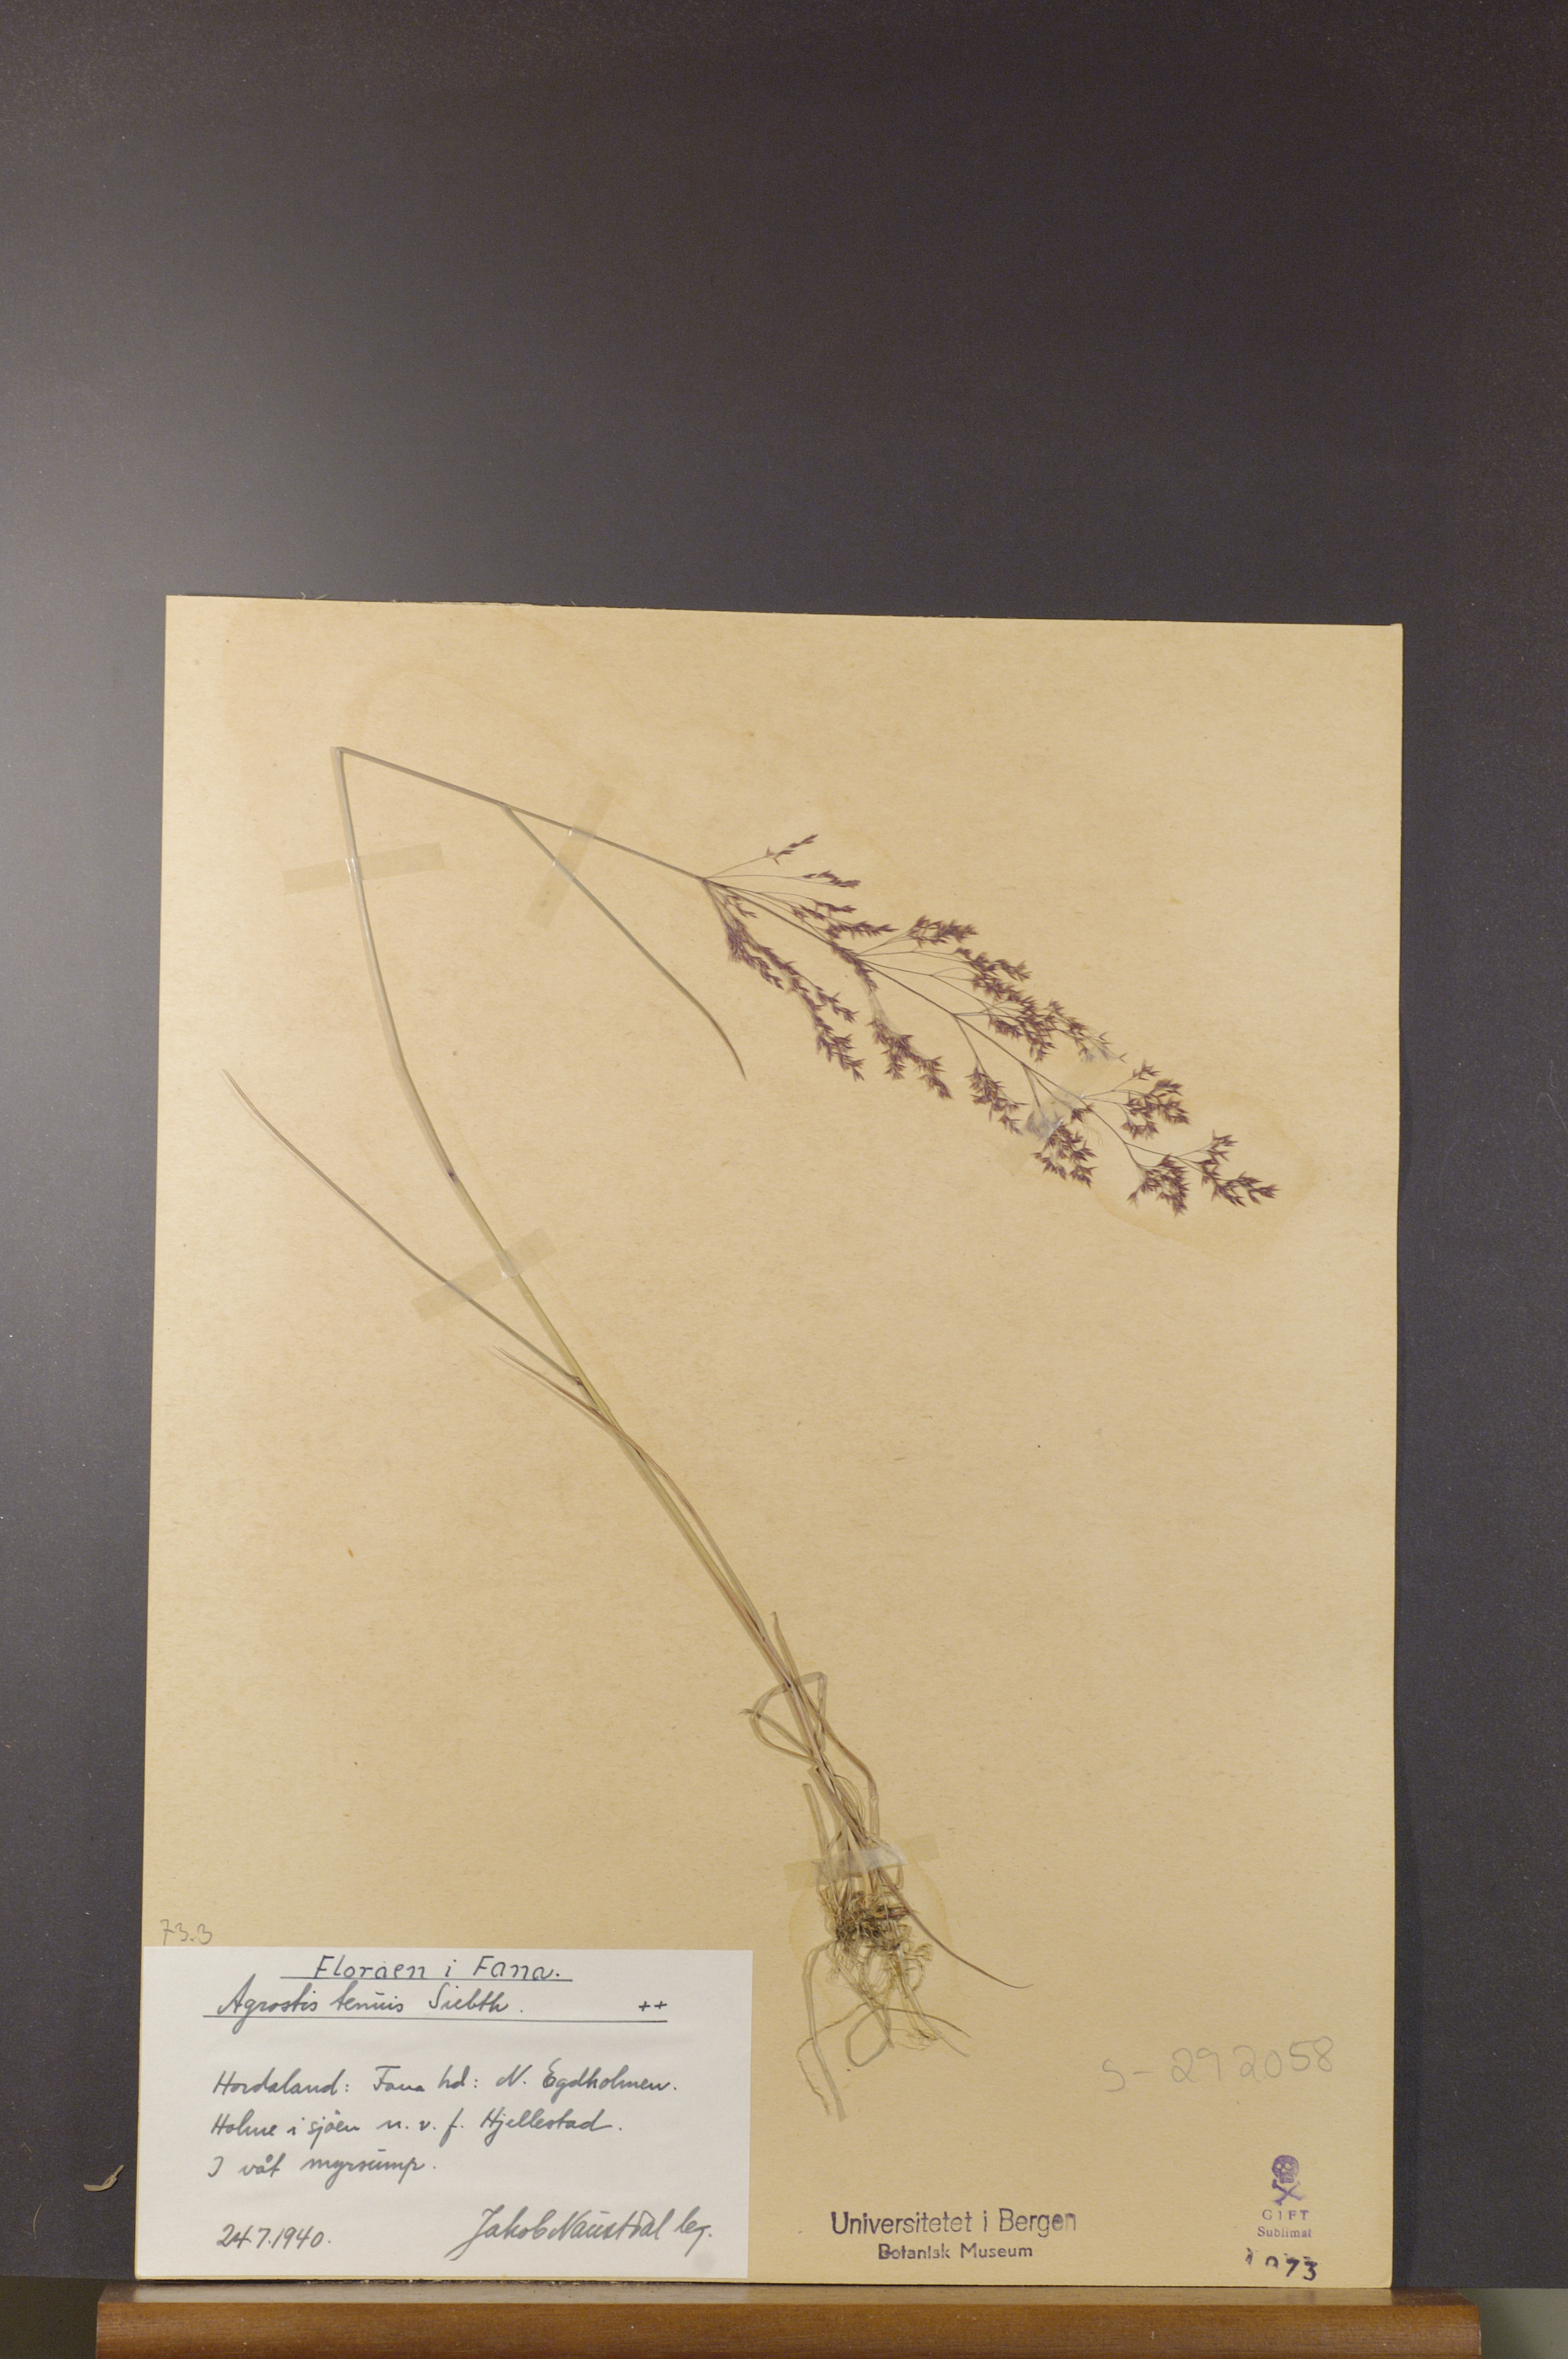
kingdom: Plantae
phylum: Tracheophyta
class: Liliopsida
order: Poales
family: Poaceae
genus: Agrostis
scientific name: Agrostis capillaris
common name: Colonial bentgrass
